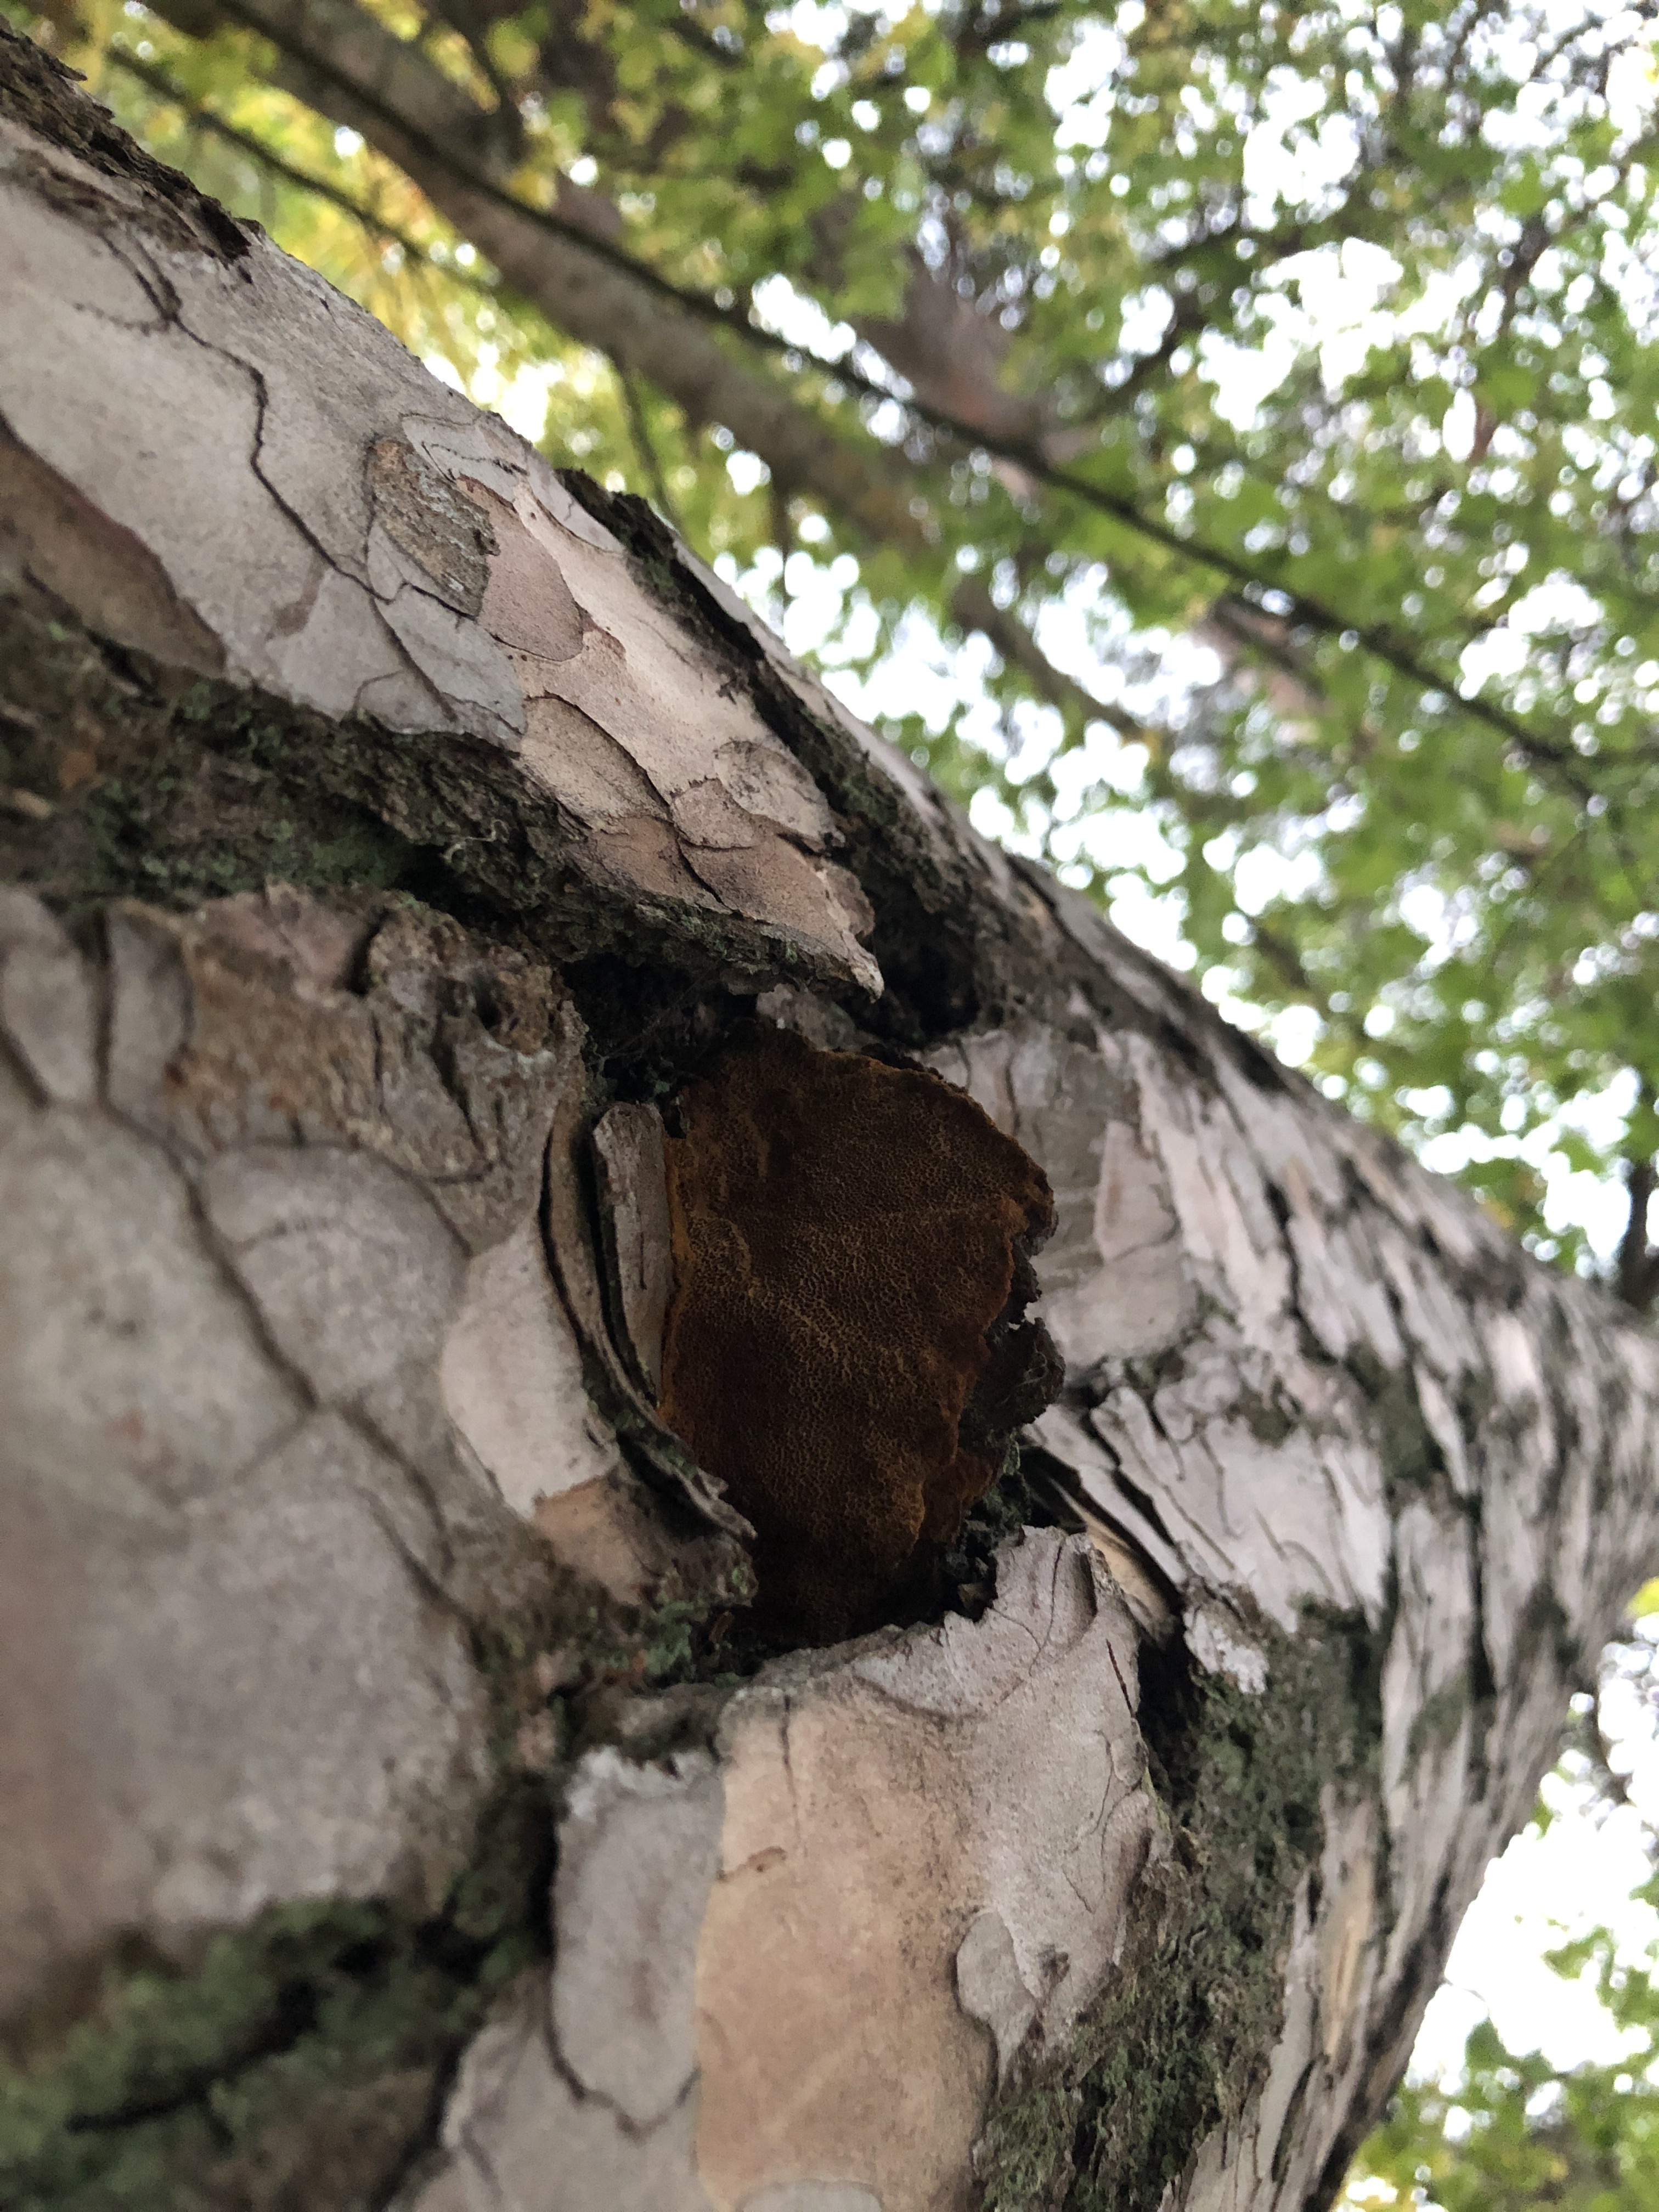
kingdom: Fungi
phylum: Basidiomycota
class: Agaricomycetes
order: Hymenochaetales
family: Hymenochaetaceae
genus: Porodaedalea
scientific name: Porodaedalea pini
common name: Pine bracket
